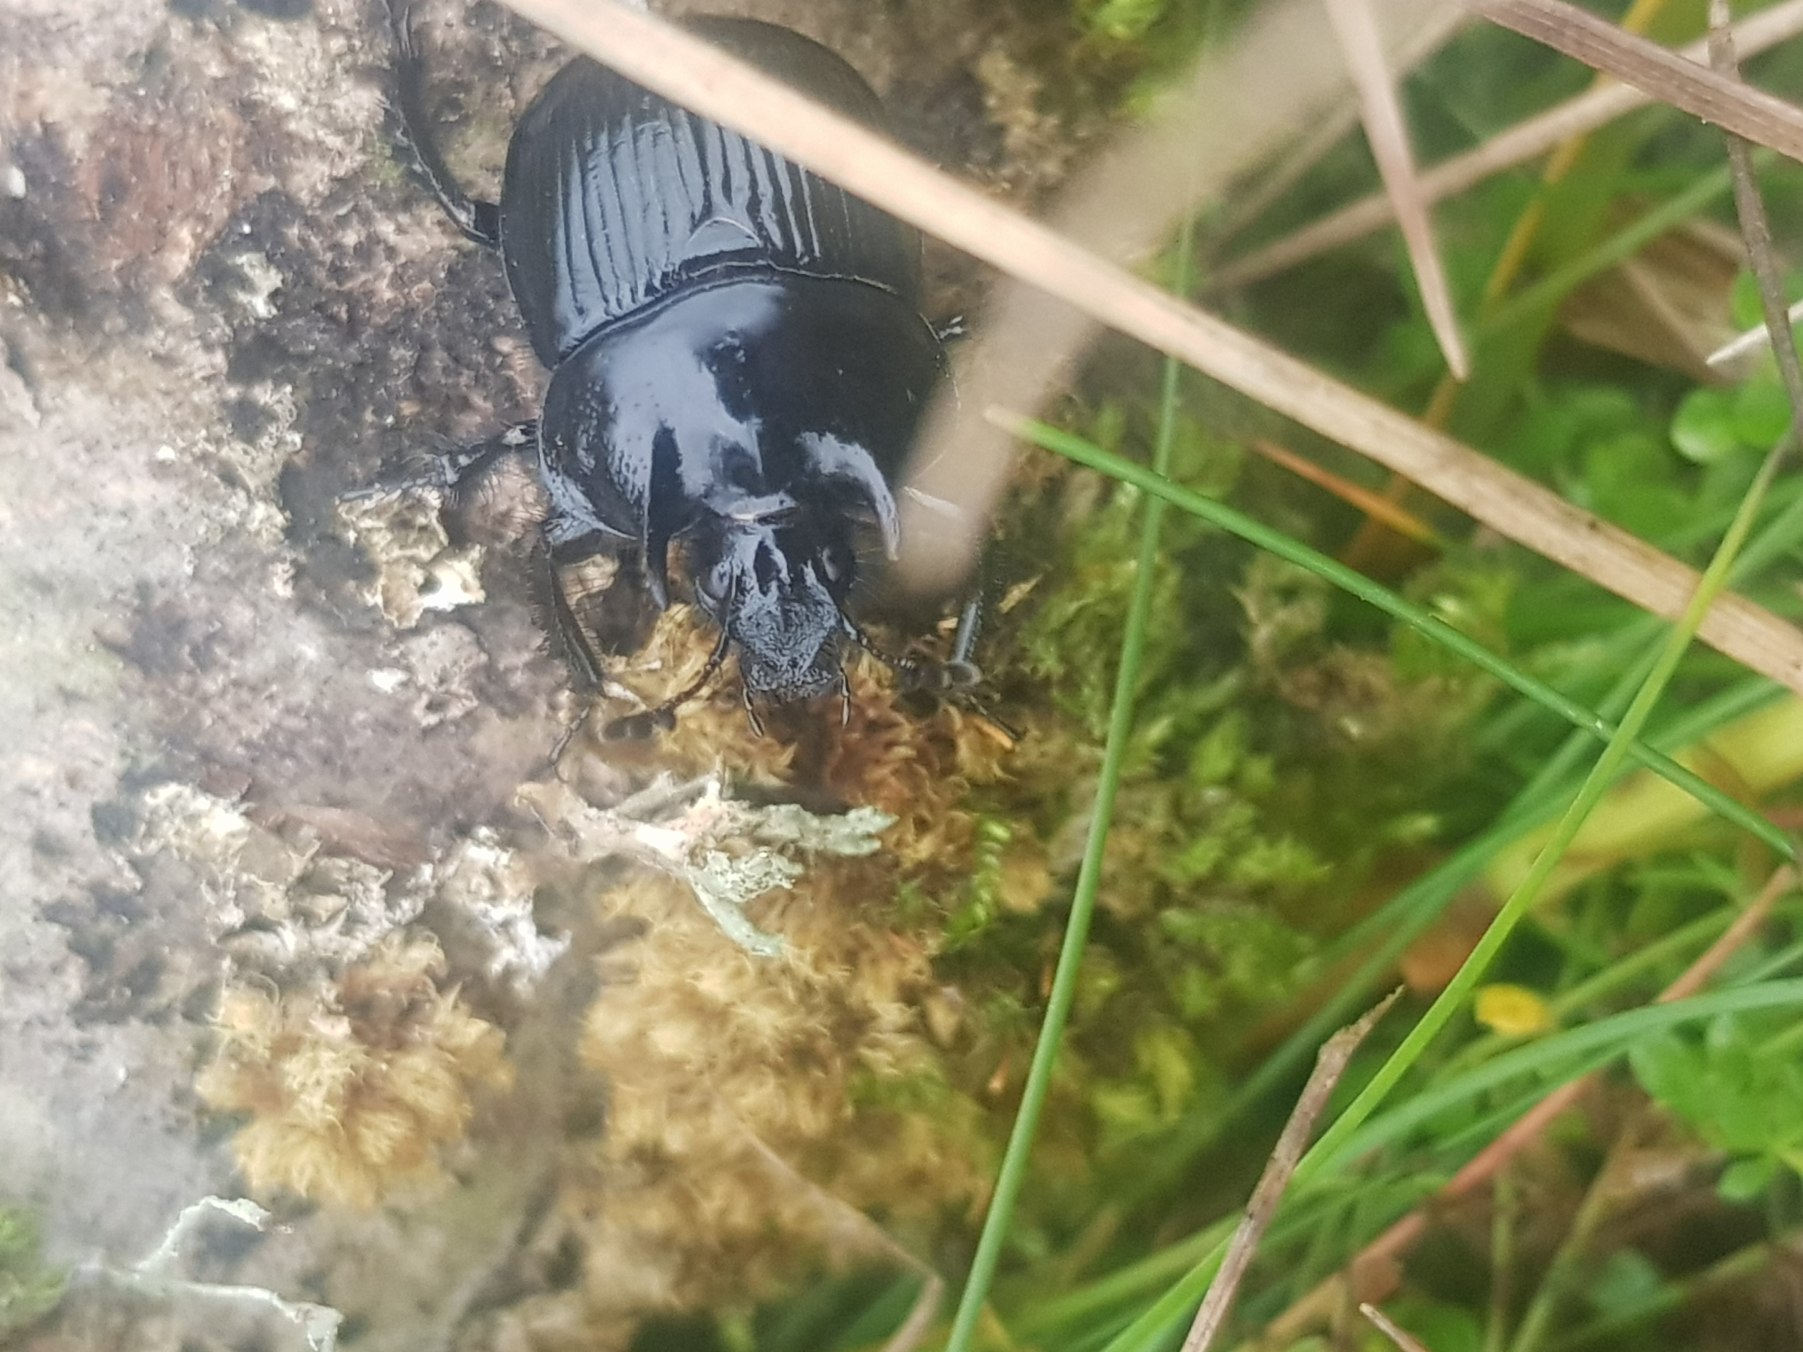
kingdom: Animalia
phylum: Arthropoda
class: Insecta
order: Coleoptera
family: Geotrupidae
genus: Typhaeus
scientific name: Typhaeus typhoeus
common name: Trehornet skarnbasse
